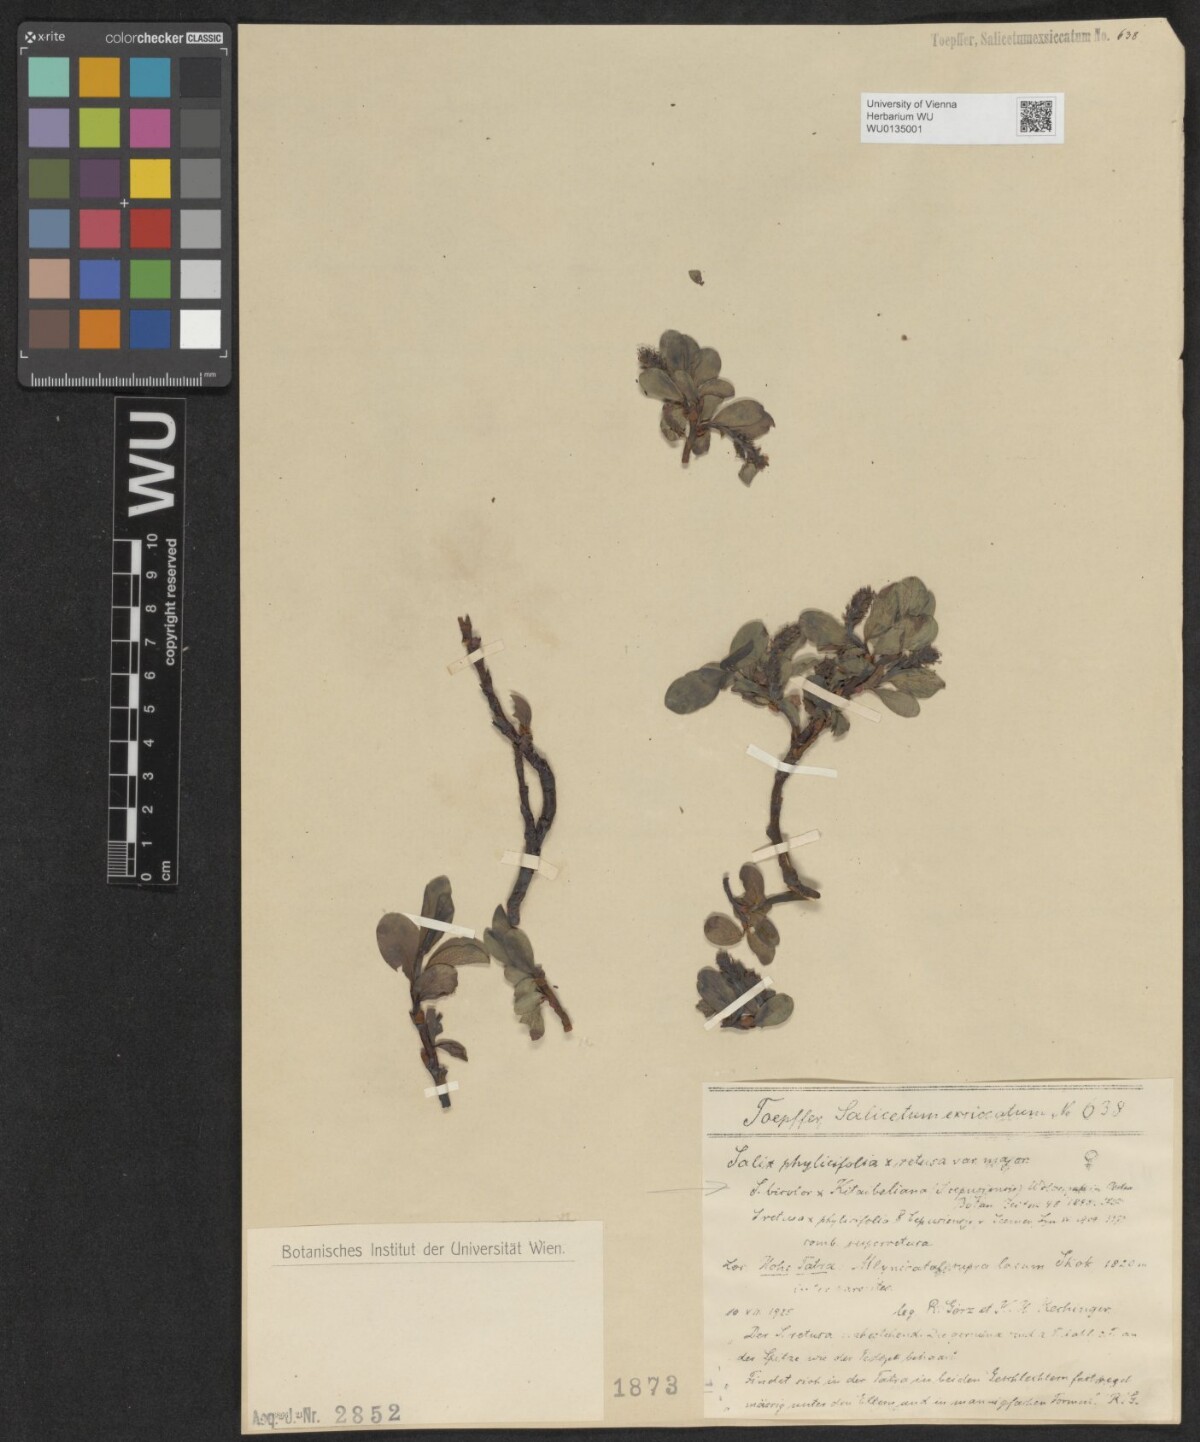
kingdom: Plantae
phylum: Tracheophyta
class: Magnoliopsida
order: Malpighiales
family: Salicaceae
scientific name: Salicaceae
